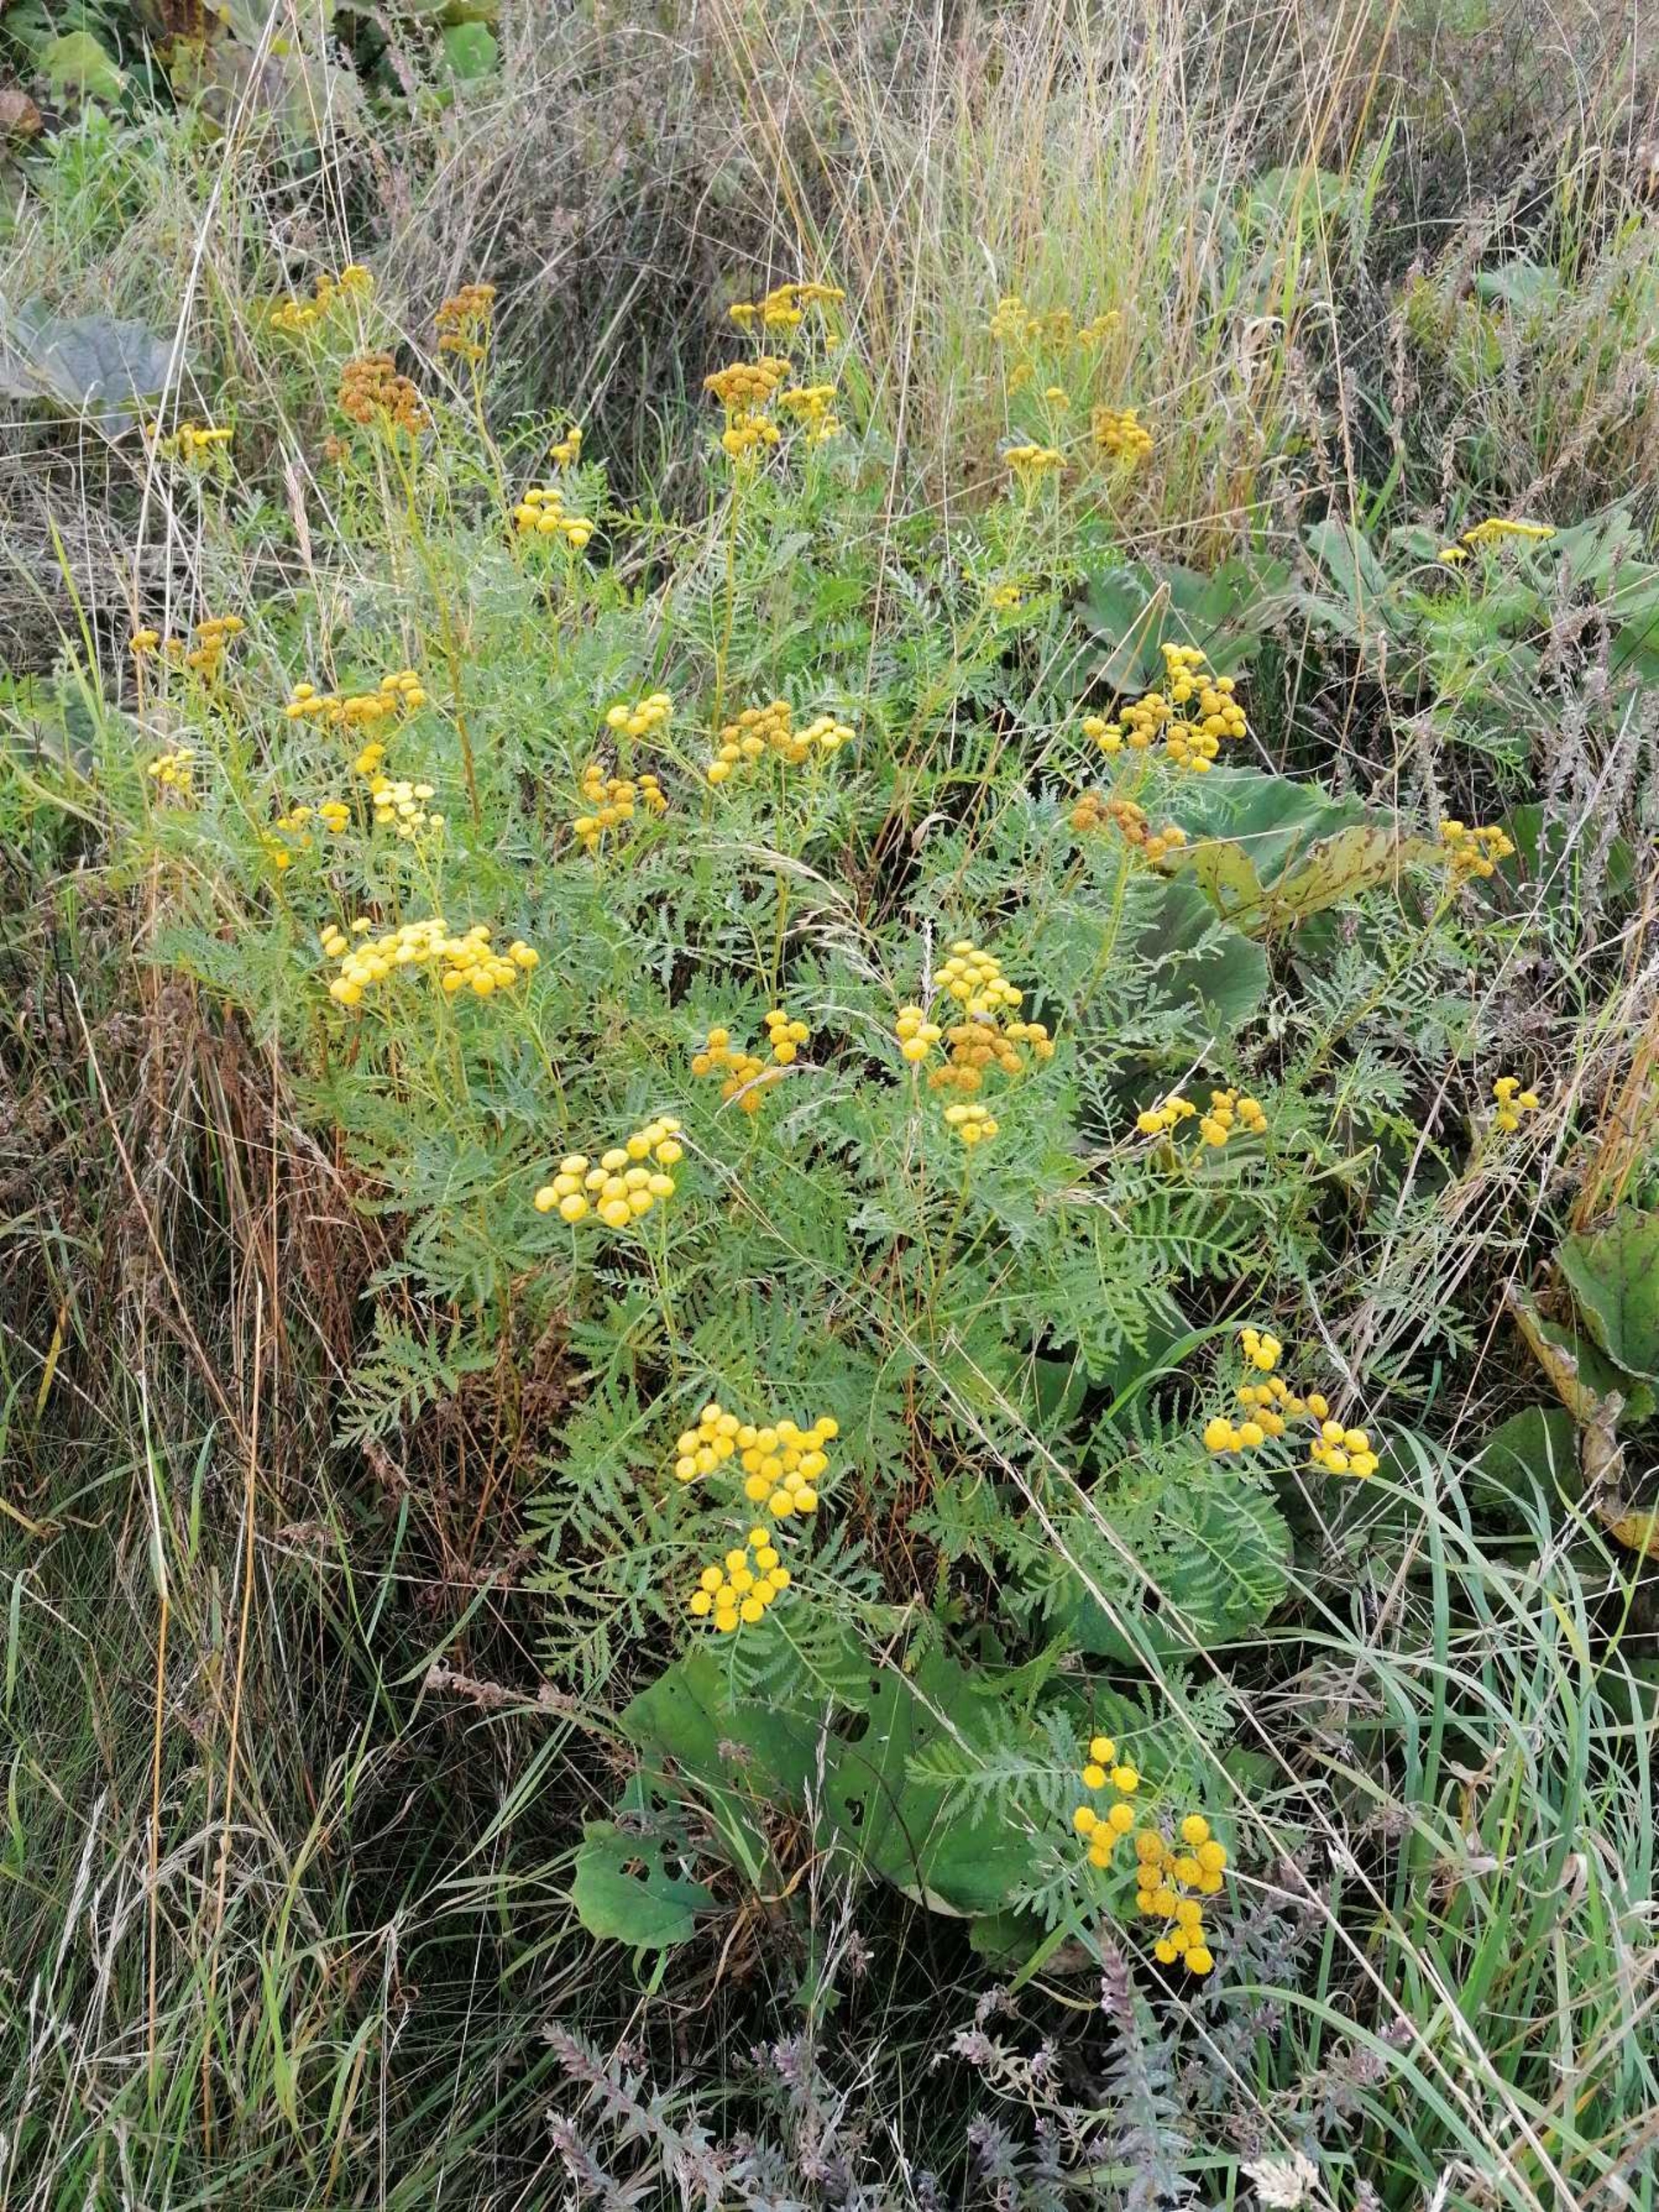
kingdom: Plantae
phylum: Tracheophyta
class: Magnoliopsida
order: Asterales
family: Asteraceae
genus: Tanacetum
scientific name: Tanacetum vulgare
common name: Rejnfan
